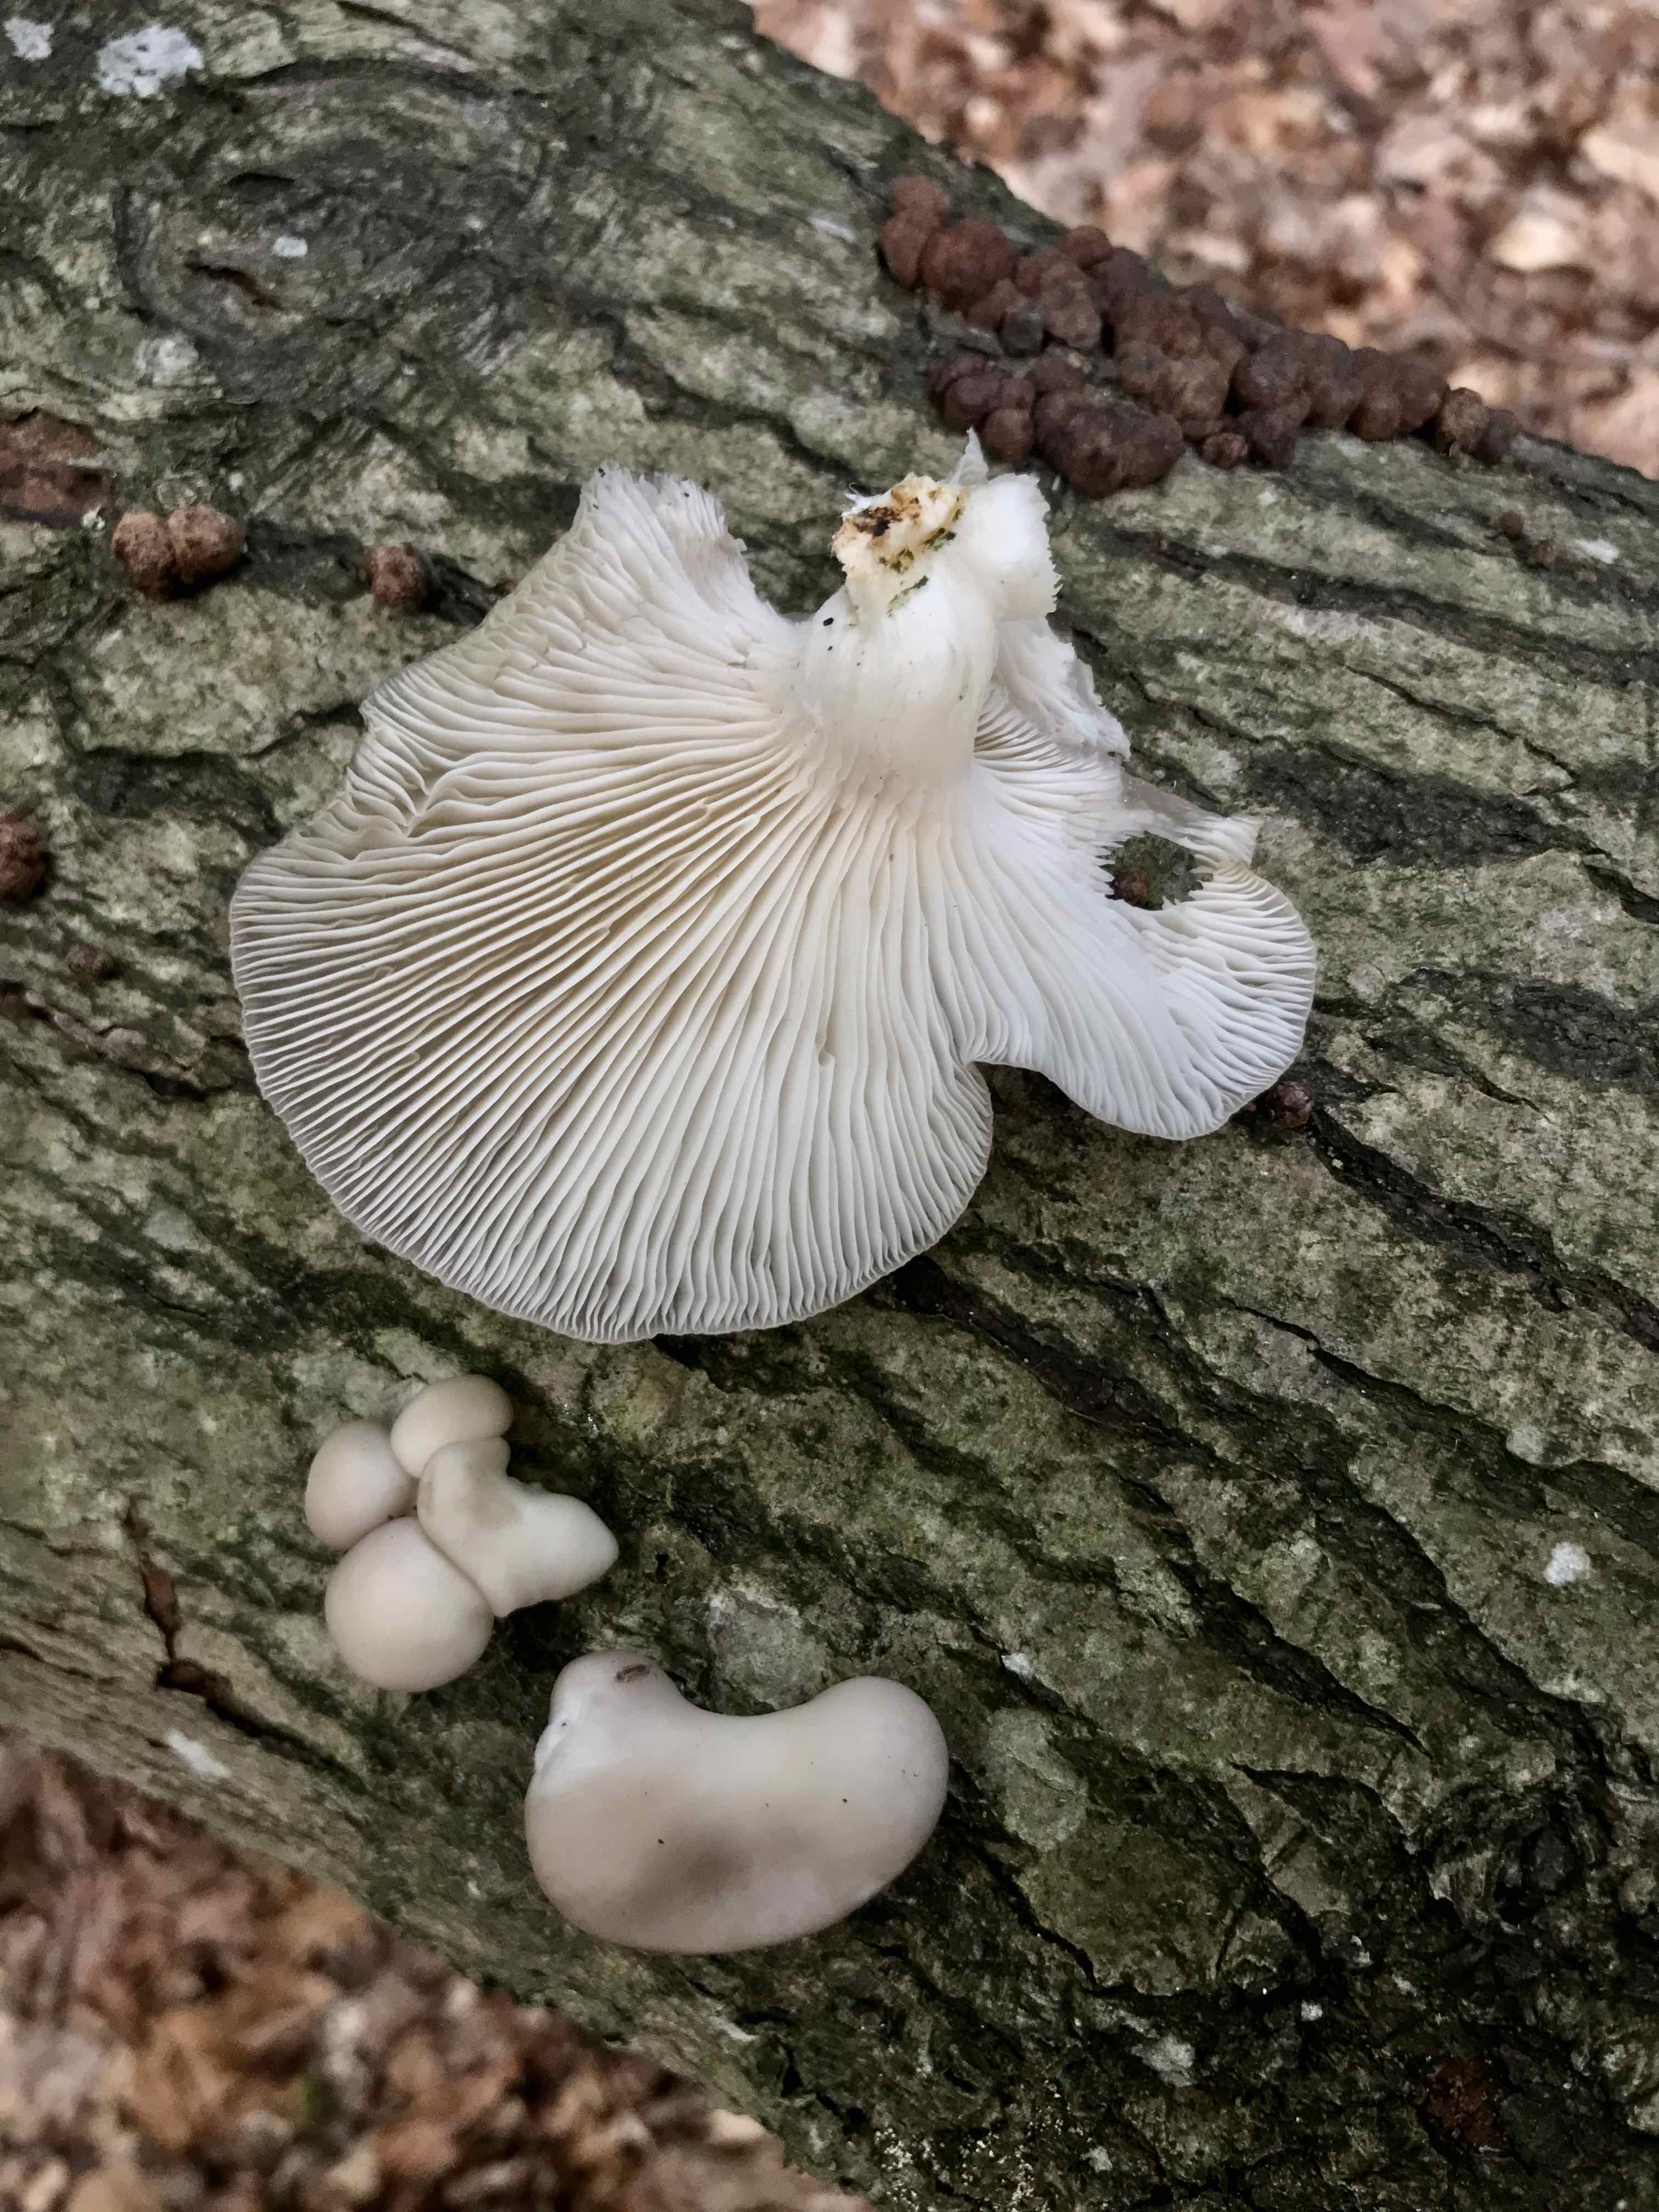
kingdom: Fungi
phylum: Basidiomycota
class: Agaricomycetes
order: Agaricales
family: Pleurotaceae
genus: Pleurotus
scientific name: Pleurotus ostreatus
